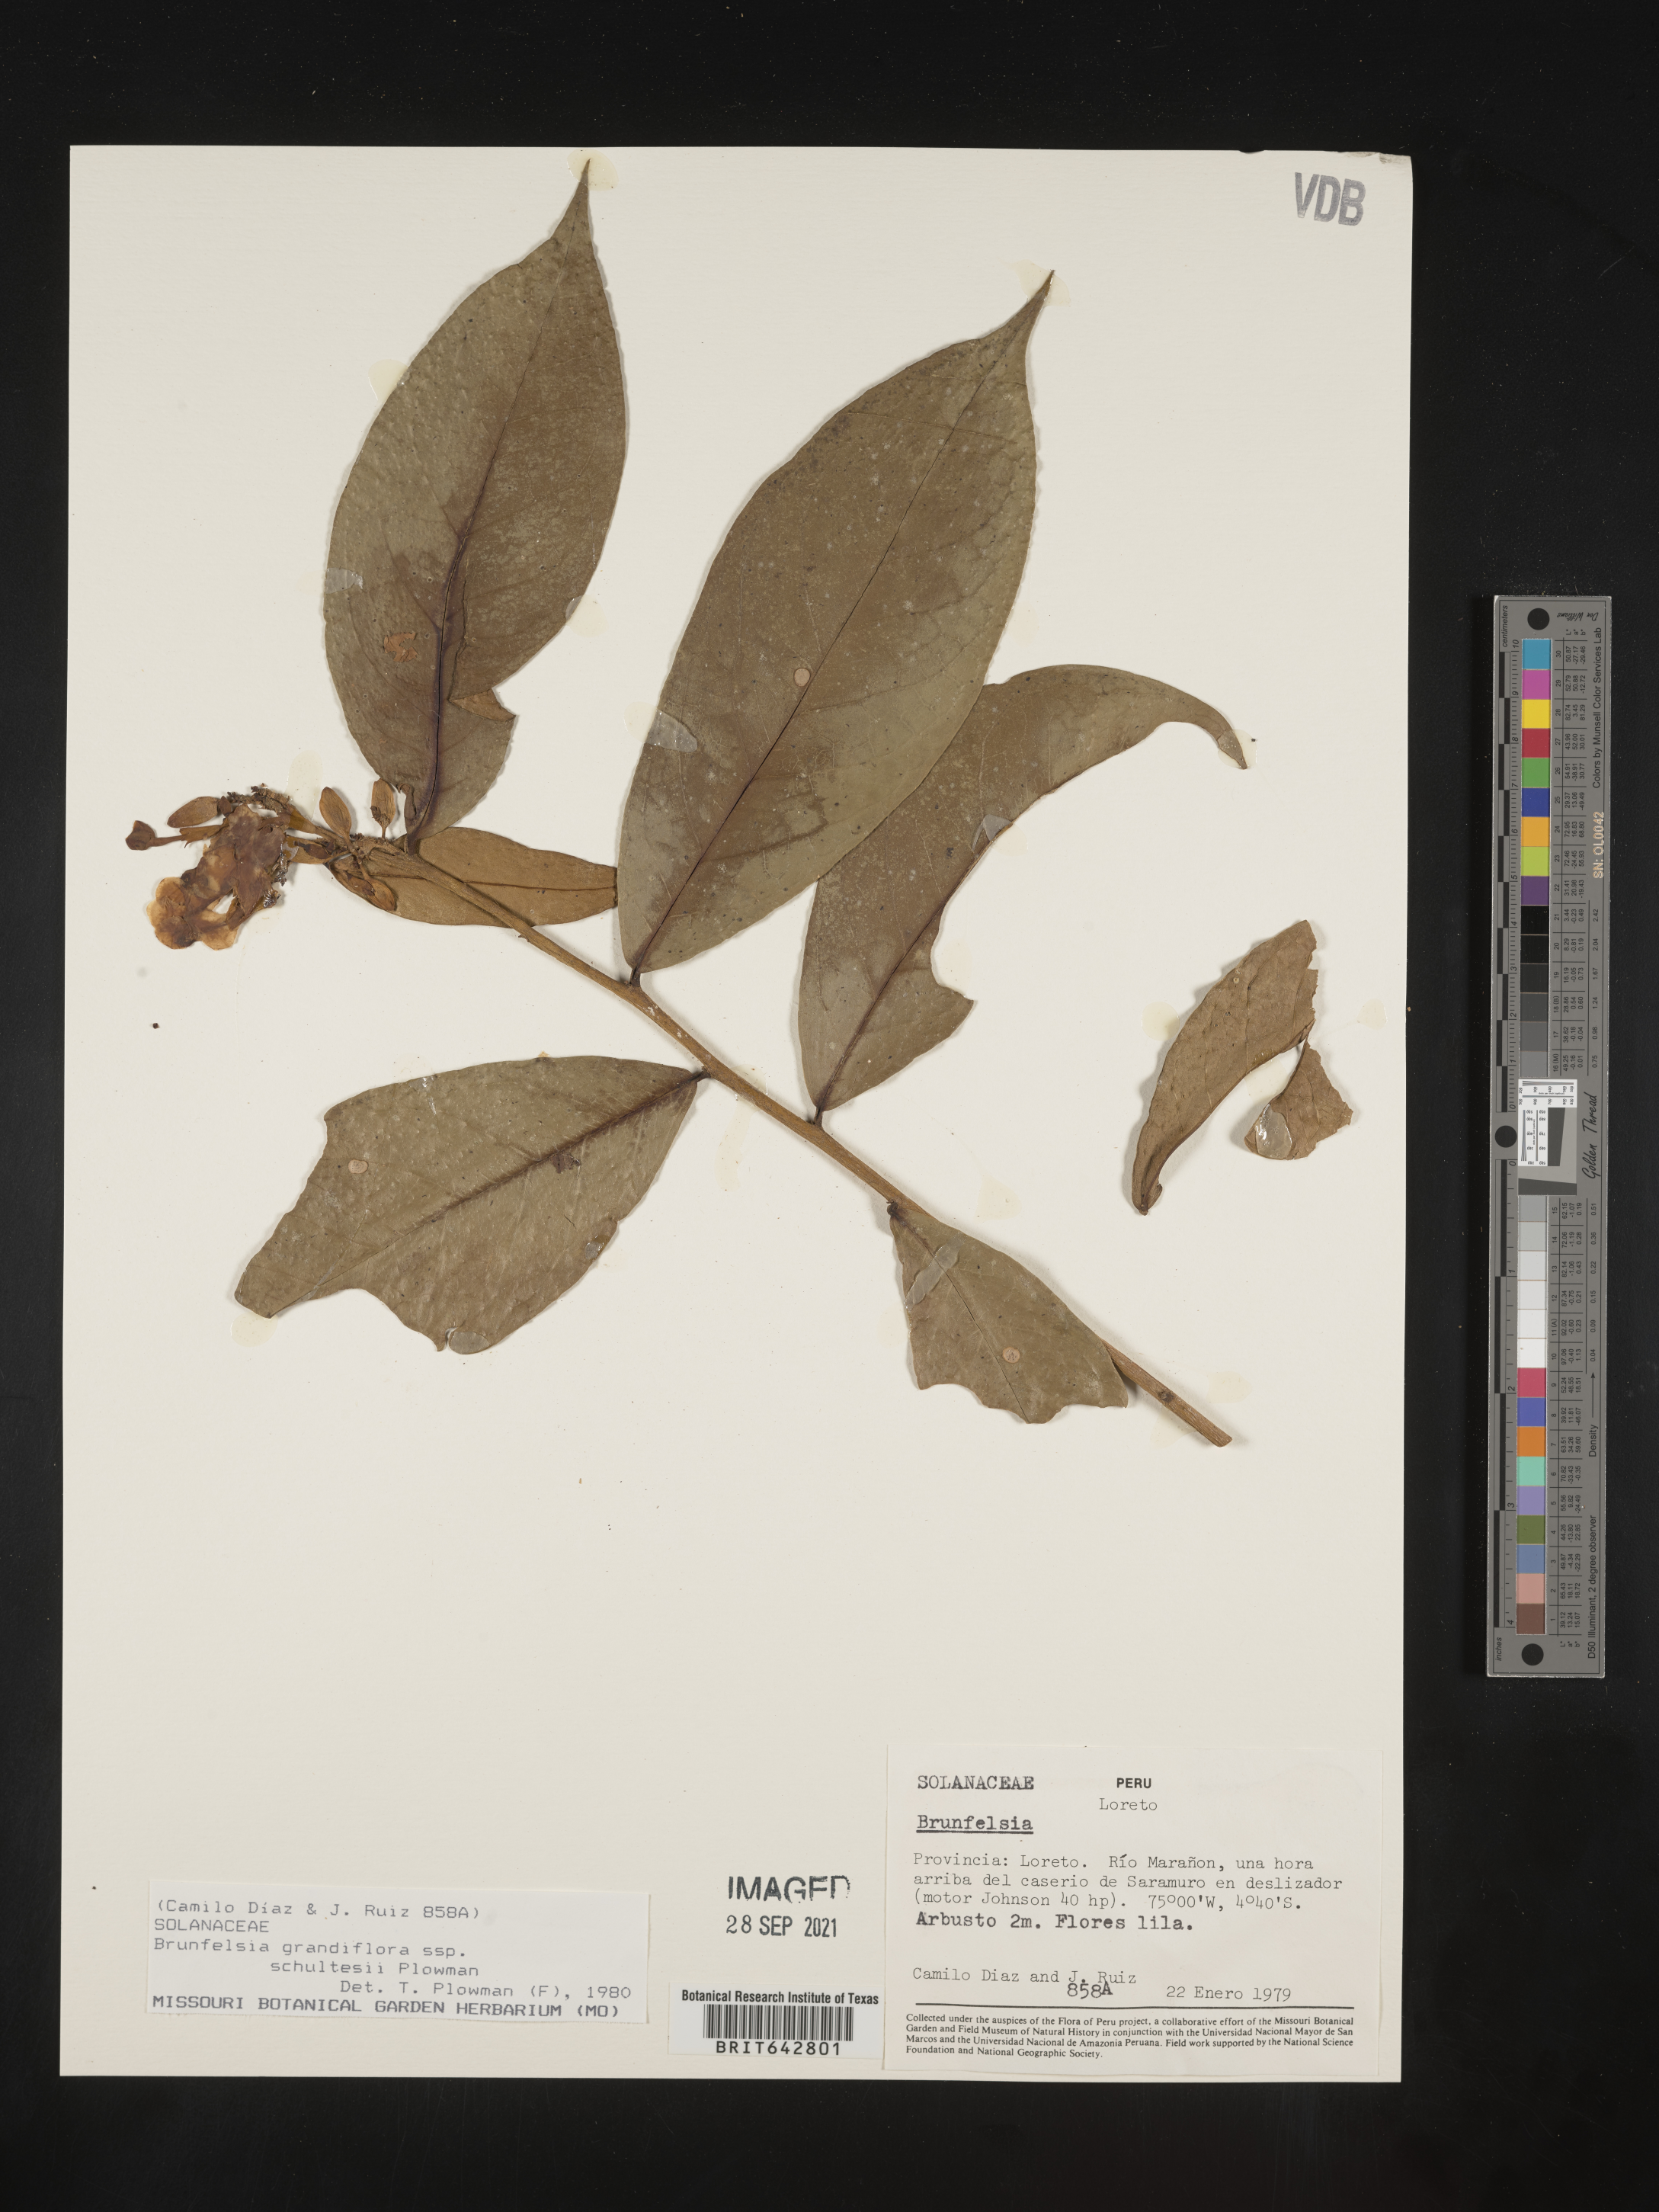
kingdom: Plantae
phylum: Tracheophyta
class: Magnoliopsida
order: Solanales
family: Solanaceae
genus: Brunfelsia
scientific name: Brunfelsia
